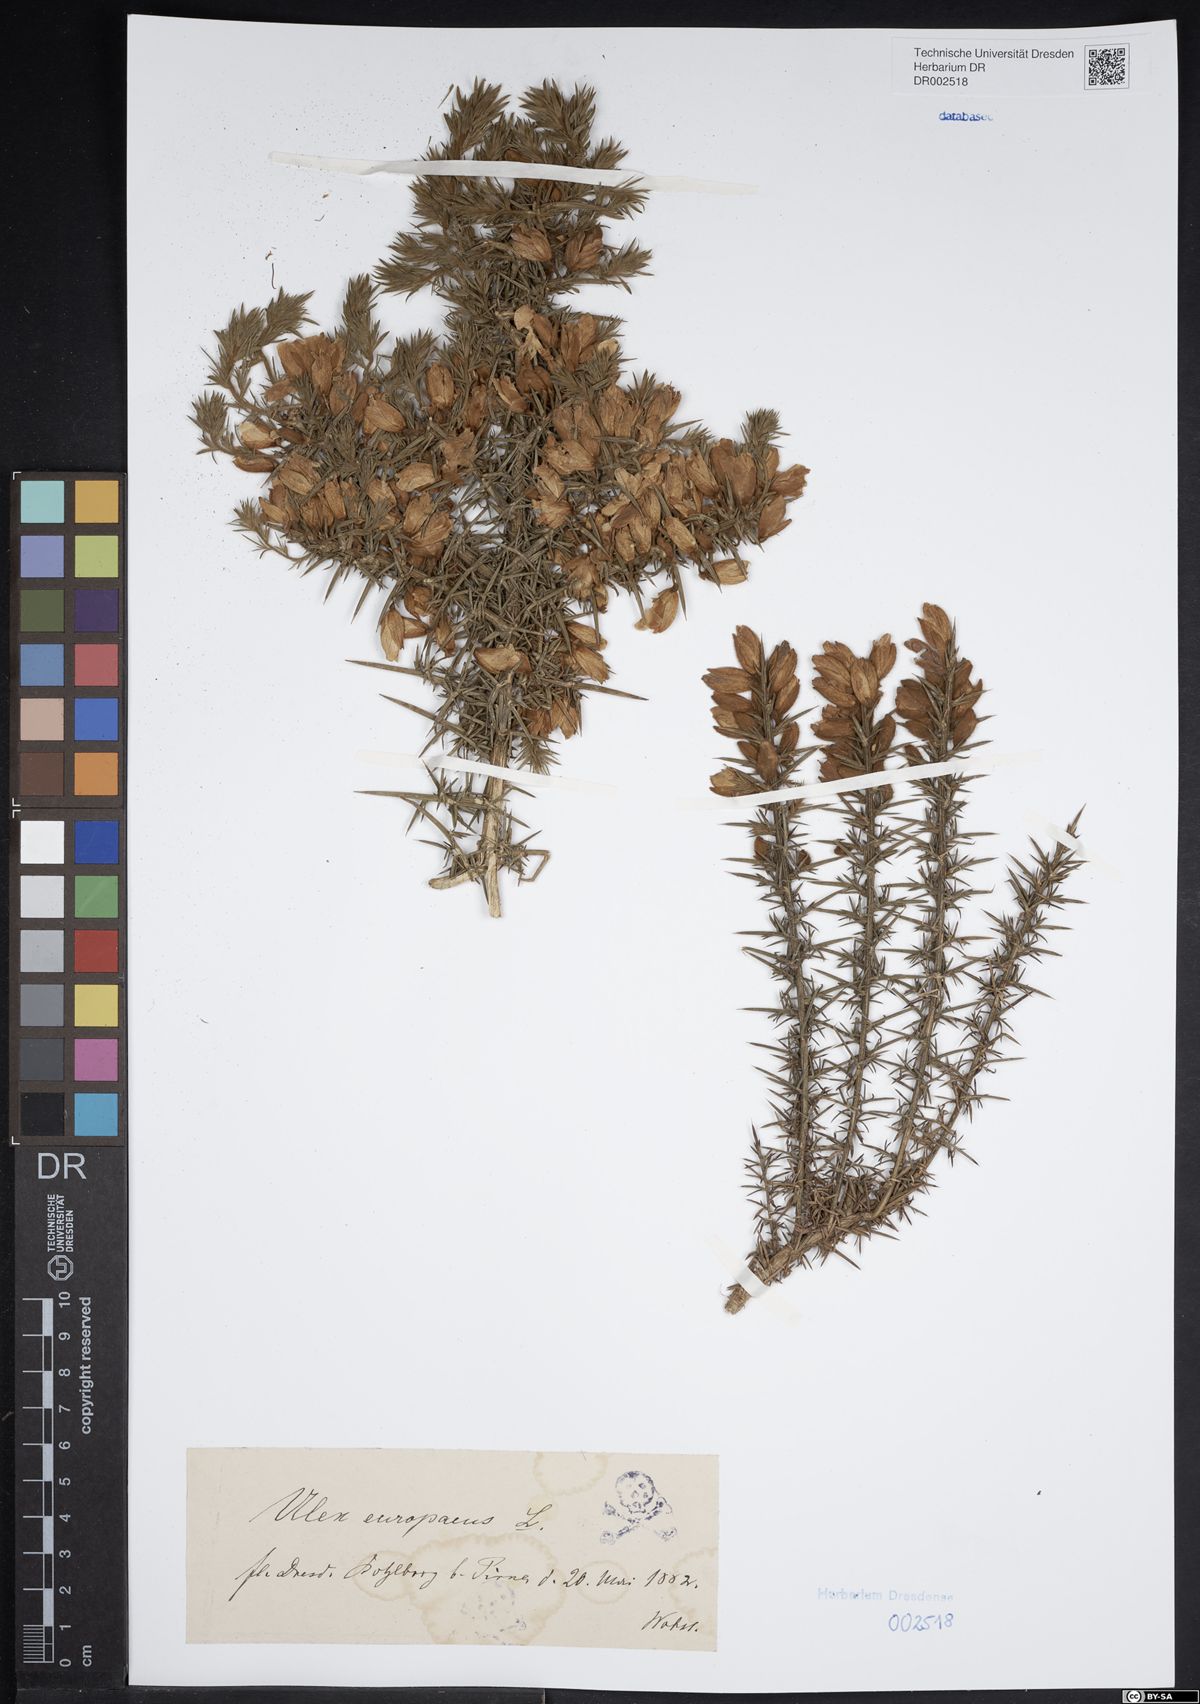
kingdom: Plantae
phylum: Tracheophyta
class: Magnoliopsida
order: Fabales
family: Fabaceae
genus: Ulex
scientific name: Ulex europaeus
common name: Common gorse
